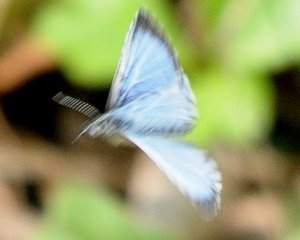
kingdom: Animalia
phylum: Arthropoda
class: Insecta
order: Lepidoptera
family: Lycaenidae
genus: Celastrina
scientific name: Celastrina lucia
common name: Northern Spring Azure
